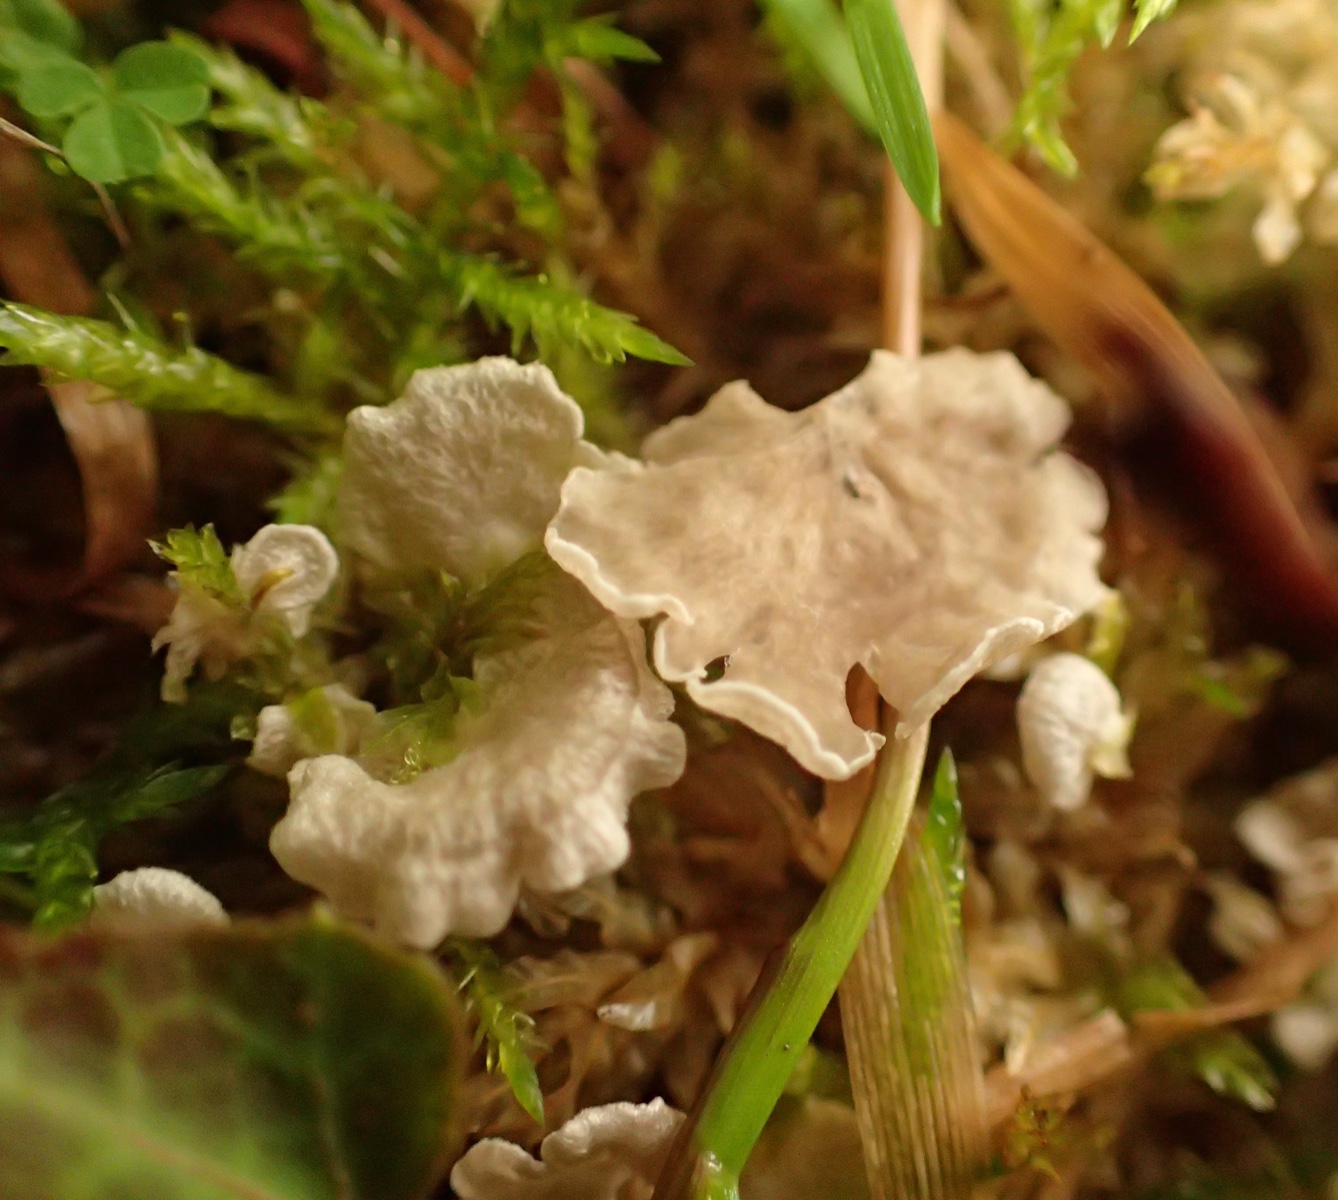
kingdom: Fungi
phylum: Basidiomycota
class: Agaricomycetes
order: Agaricales
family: Hygrophoraceae
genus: Arrhenia
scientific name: Arrhenia retiruga
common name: lille fontænehat
